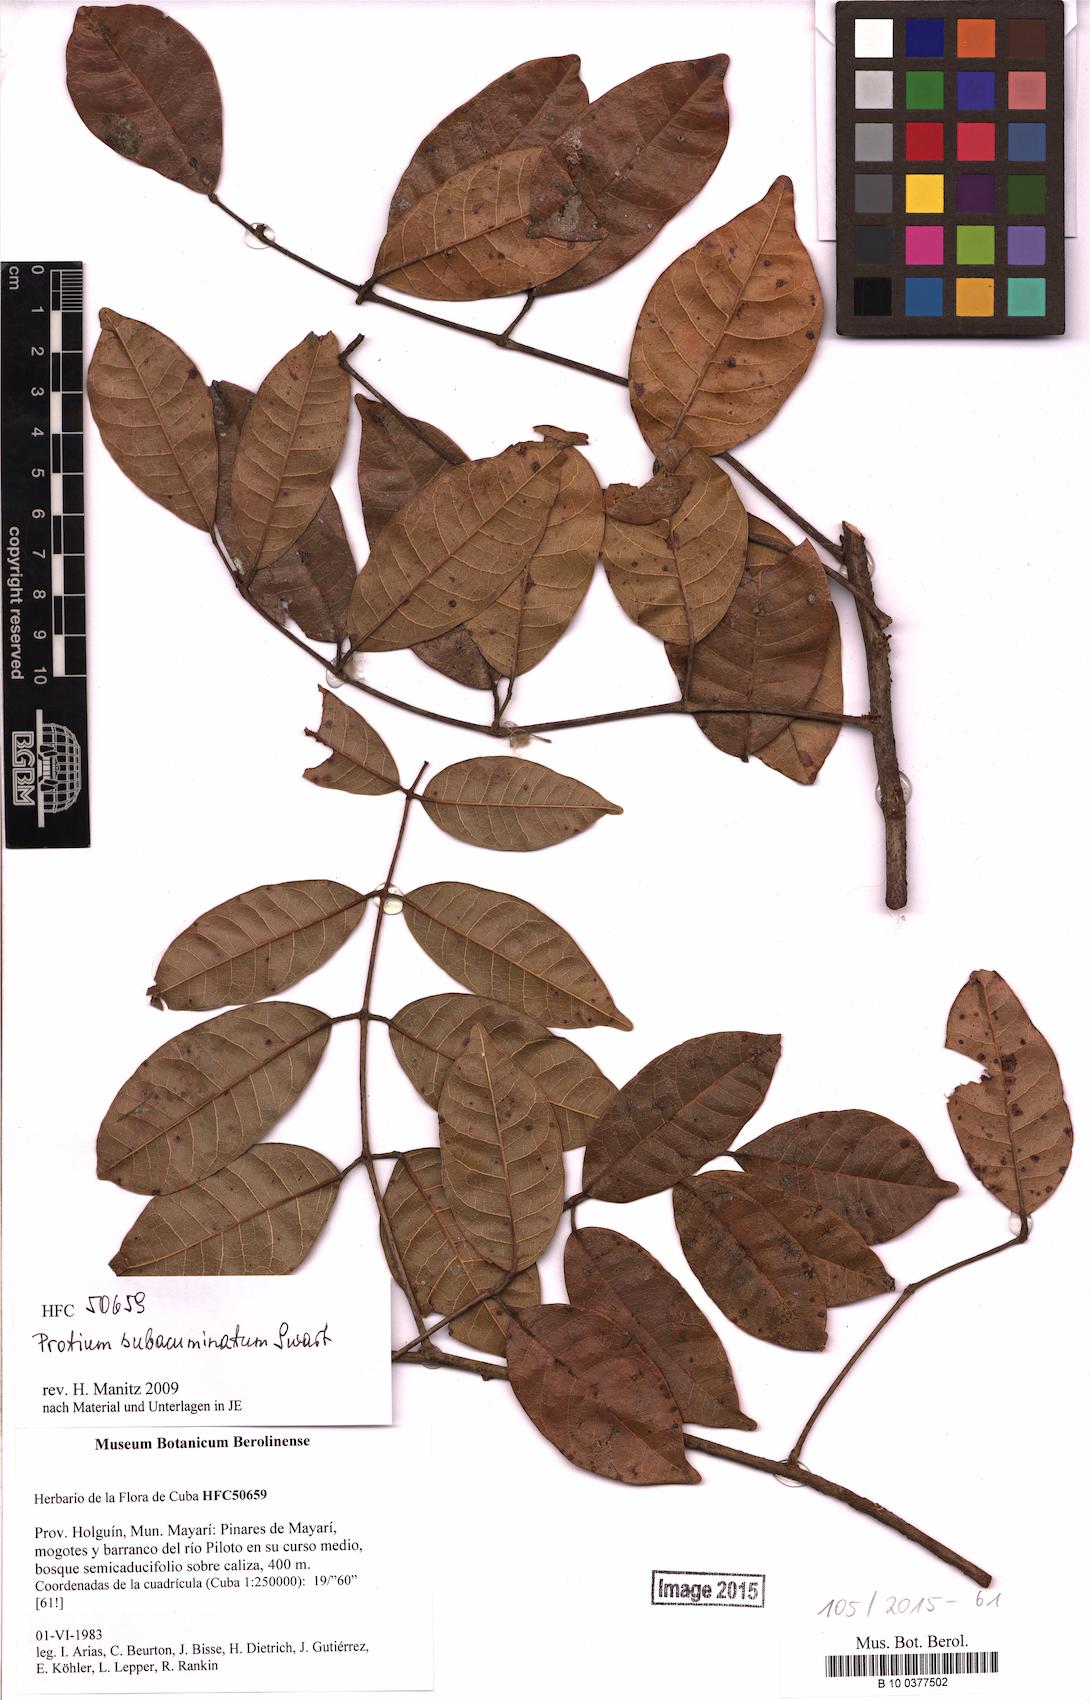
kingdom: Plantae
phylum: Tracheophyta
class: Magnoliopsida
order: Sapindales
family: Burseraceae
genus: Protium
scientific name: Protium subacuminatum
